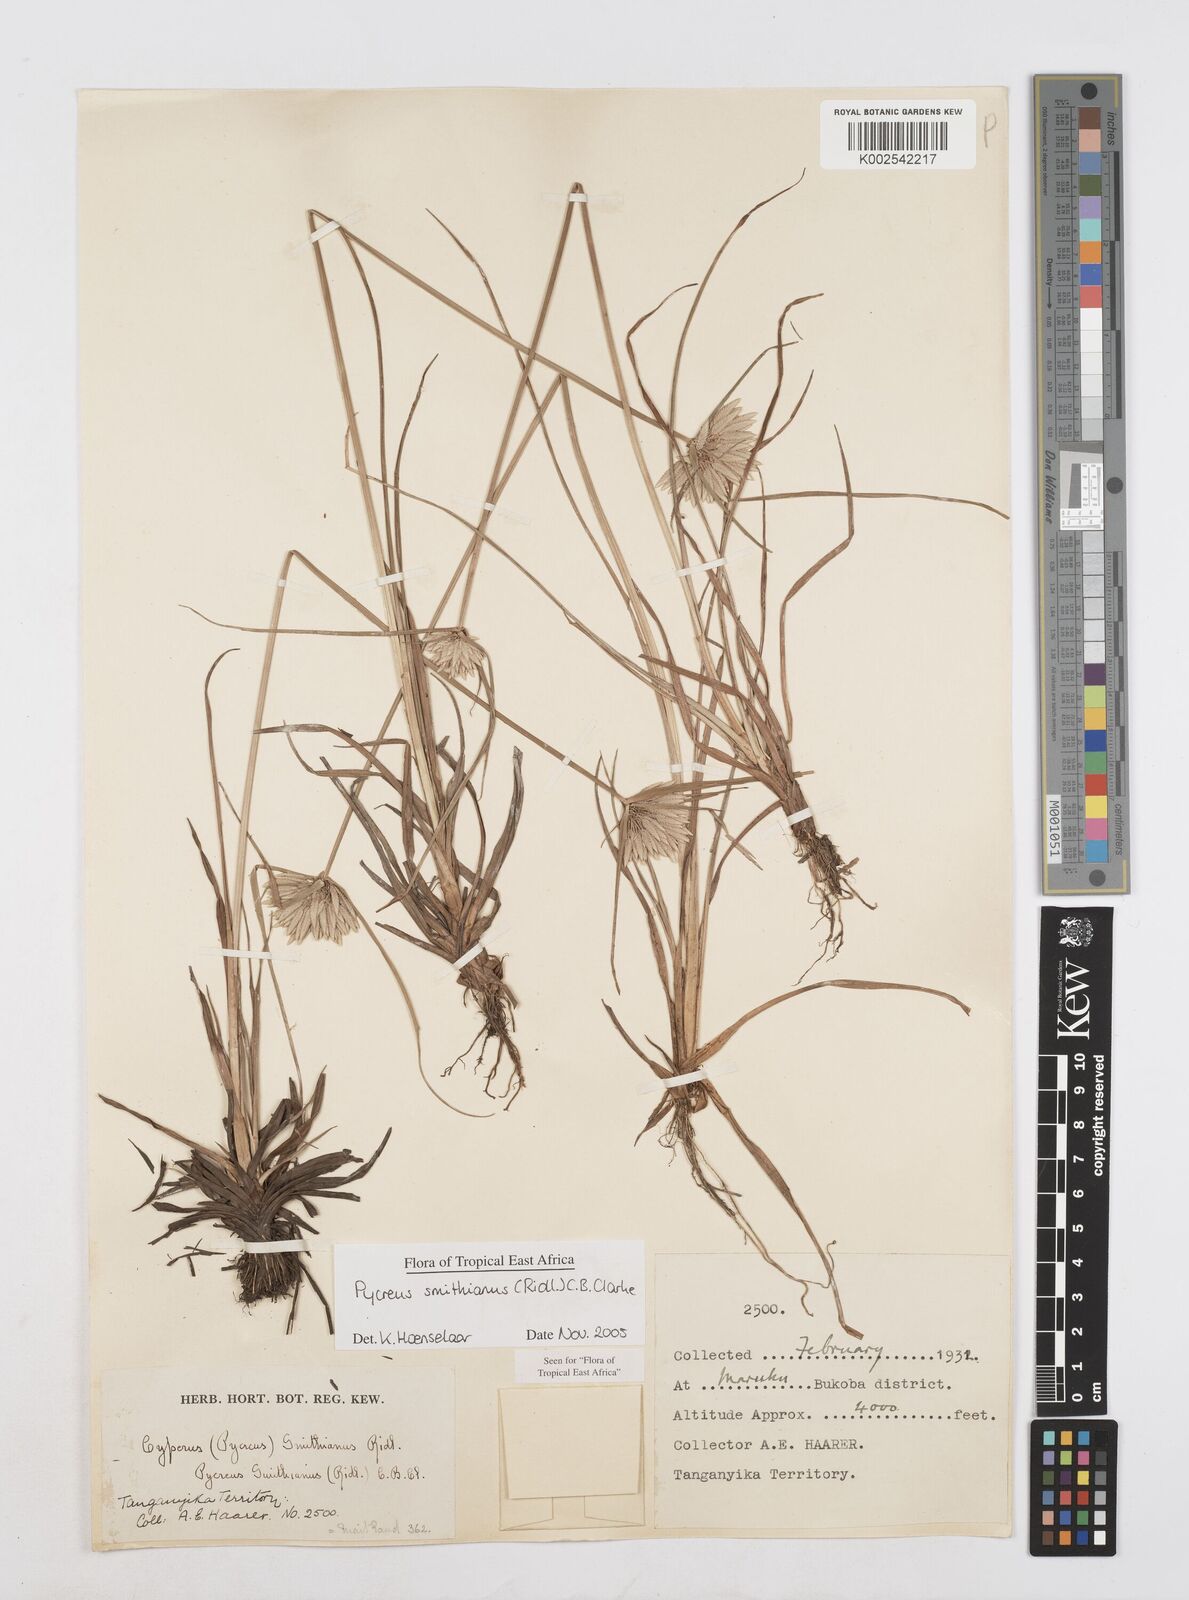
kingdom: Plantae
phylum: Tracheophyta
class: Liliopsida
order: Poales
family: Cyperaceae
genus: Cyperus
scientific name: Cyperus smithianus
